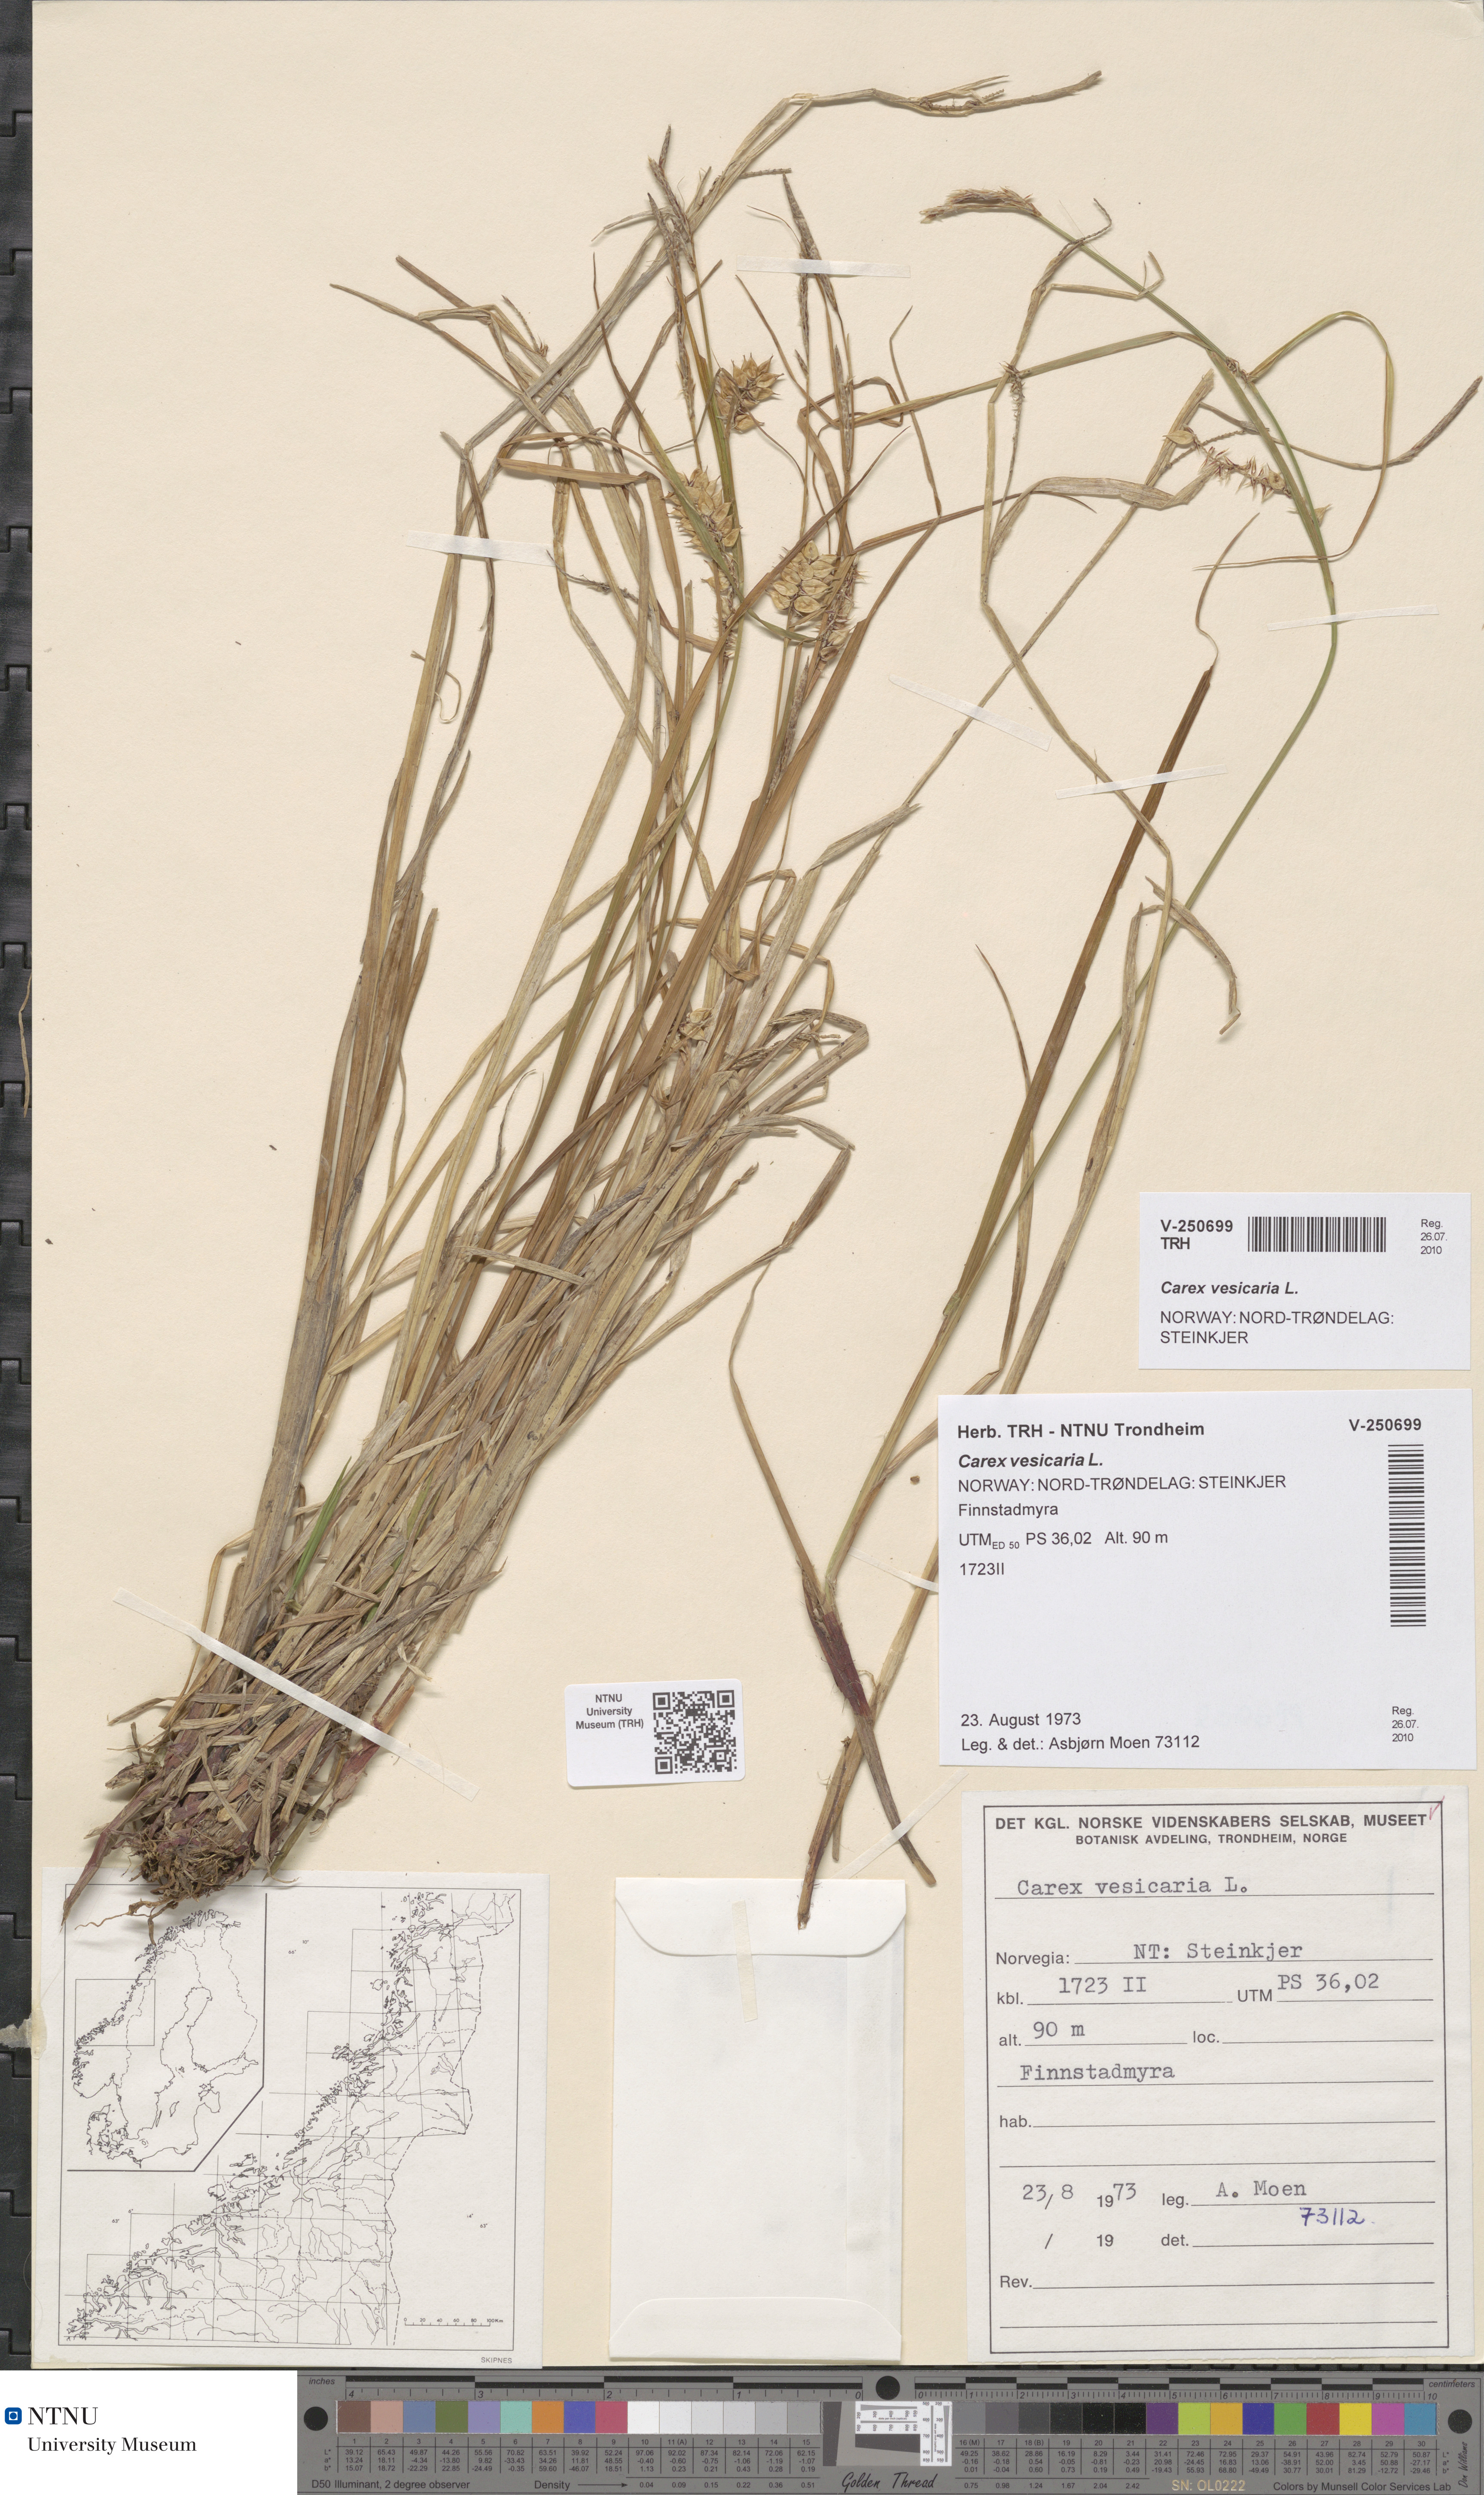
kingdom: Plantae
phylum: Tracheophyta
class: Liliopsida
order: Poales
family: Cyperaceae
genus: Carex
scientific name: Carex vesicaria
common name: Bladder-sedge
